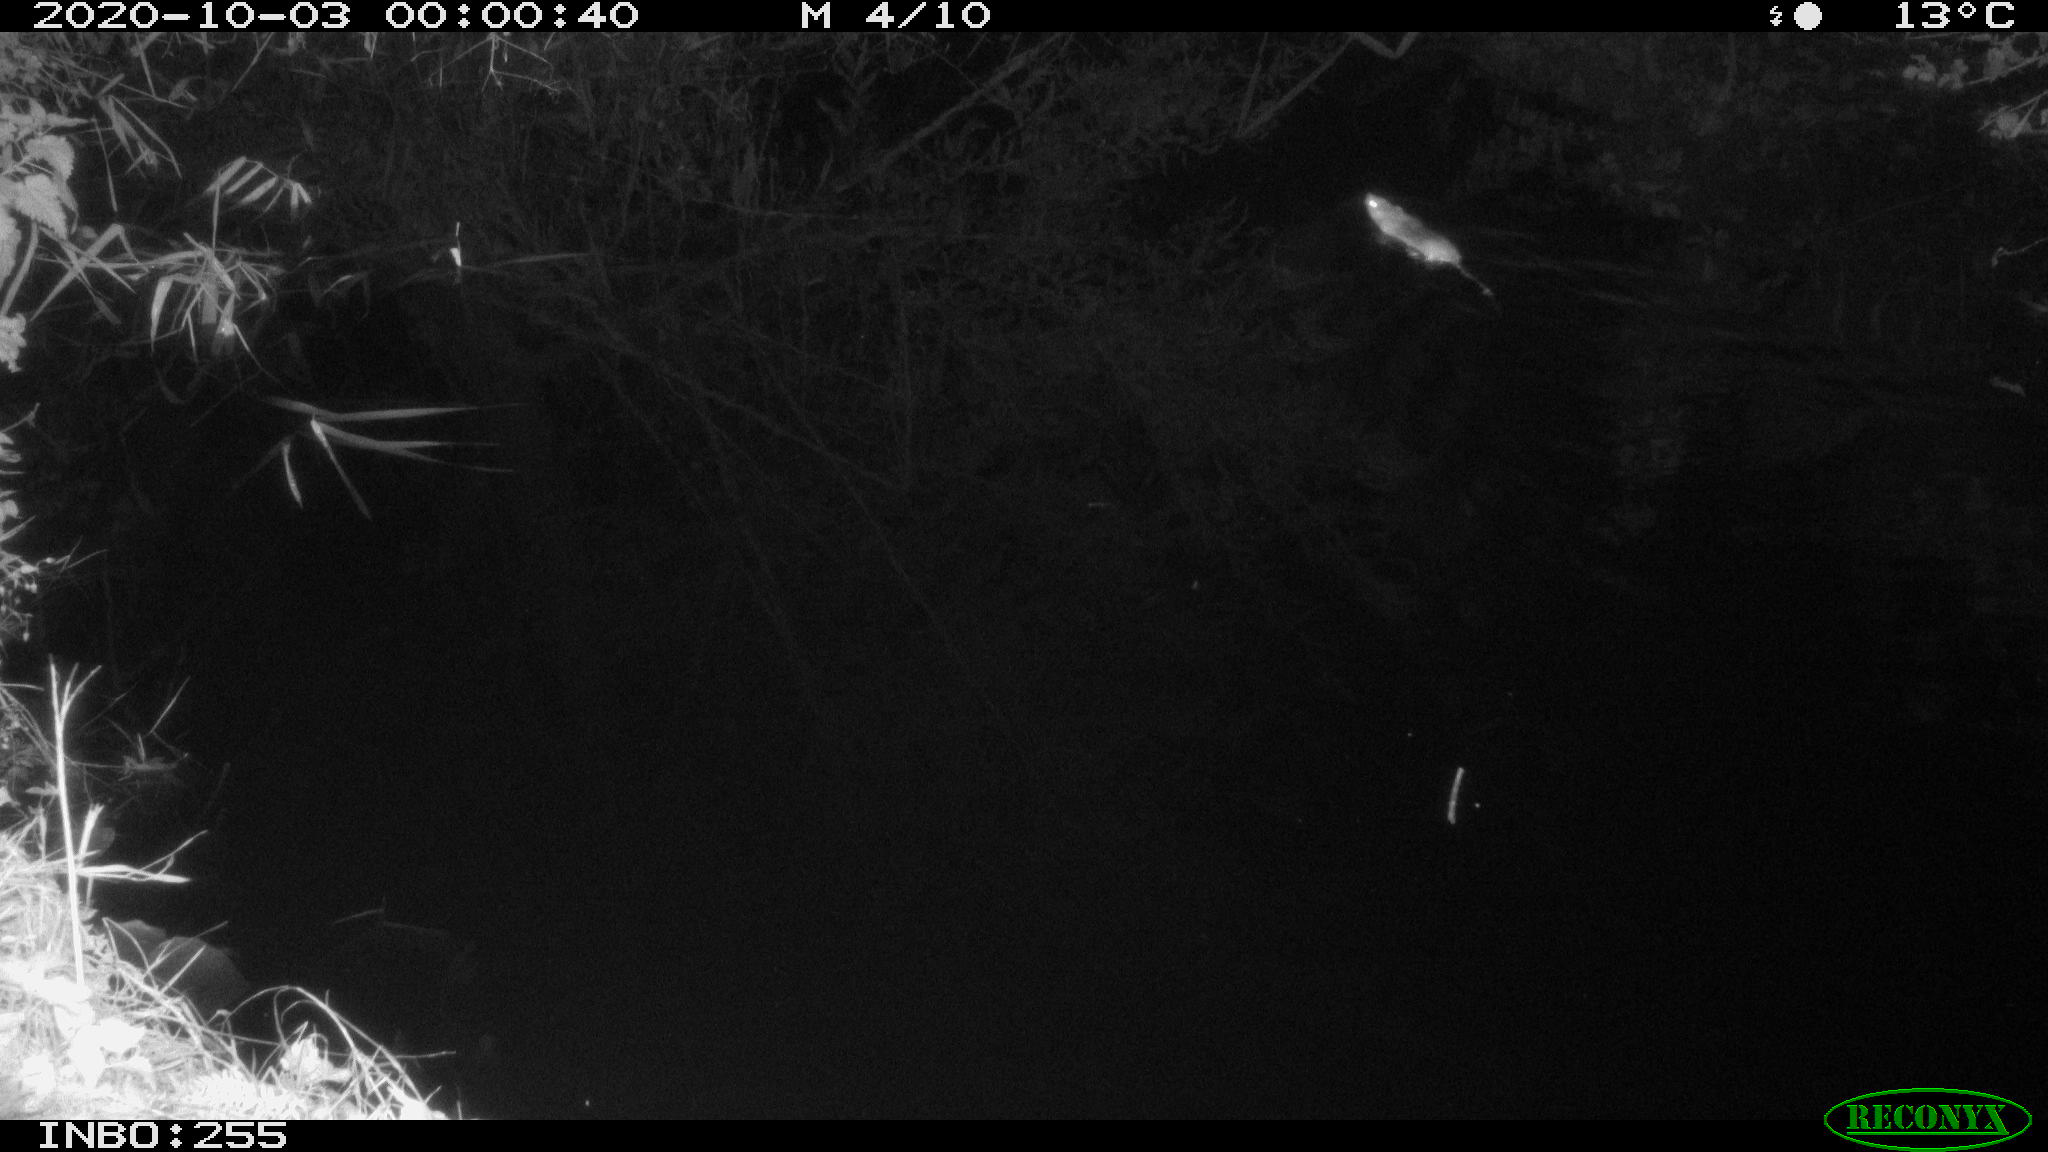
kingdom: Animalia
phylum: Chordata
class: Mammalia
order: Rodentia
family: Muridae
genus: Rattus
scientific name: Rattus norvegicus
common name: Brown rat
